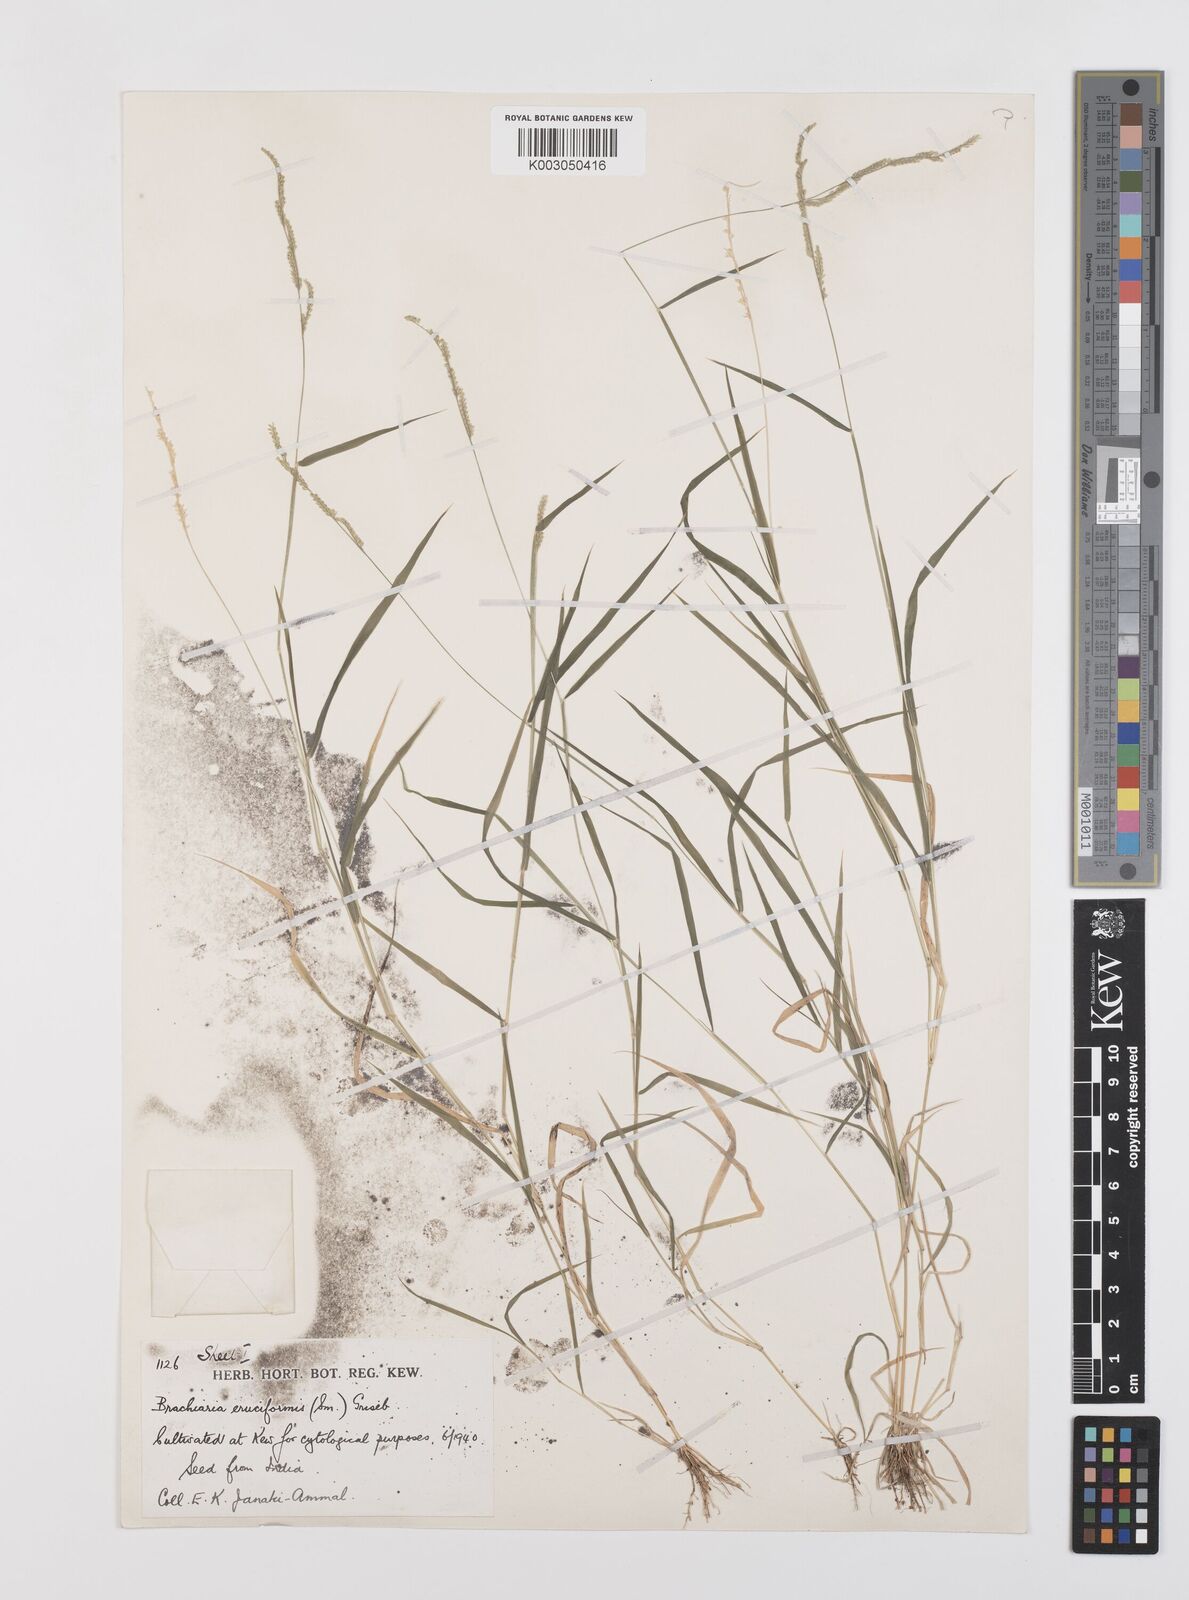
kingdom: Plantae
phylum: Tracheophyta
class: Liliopsida
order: Poales
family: Poaceae
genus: Moorochloa
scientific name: Moorochloa eruciformis
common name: Sweet signalgrass
